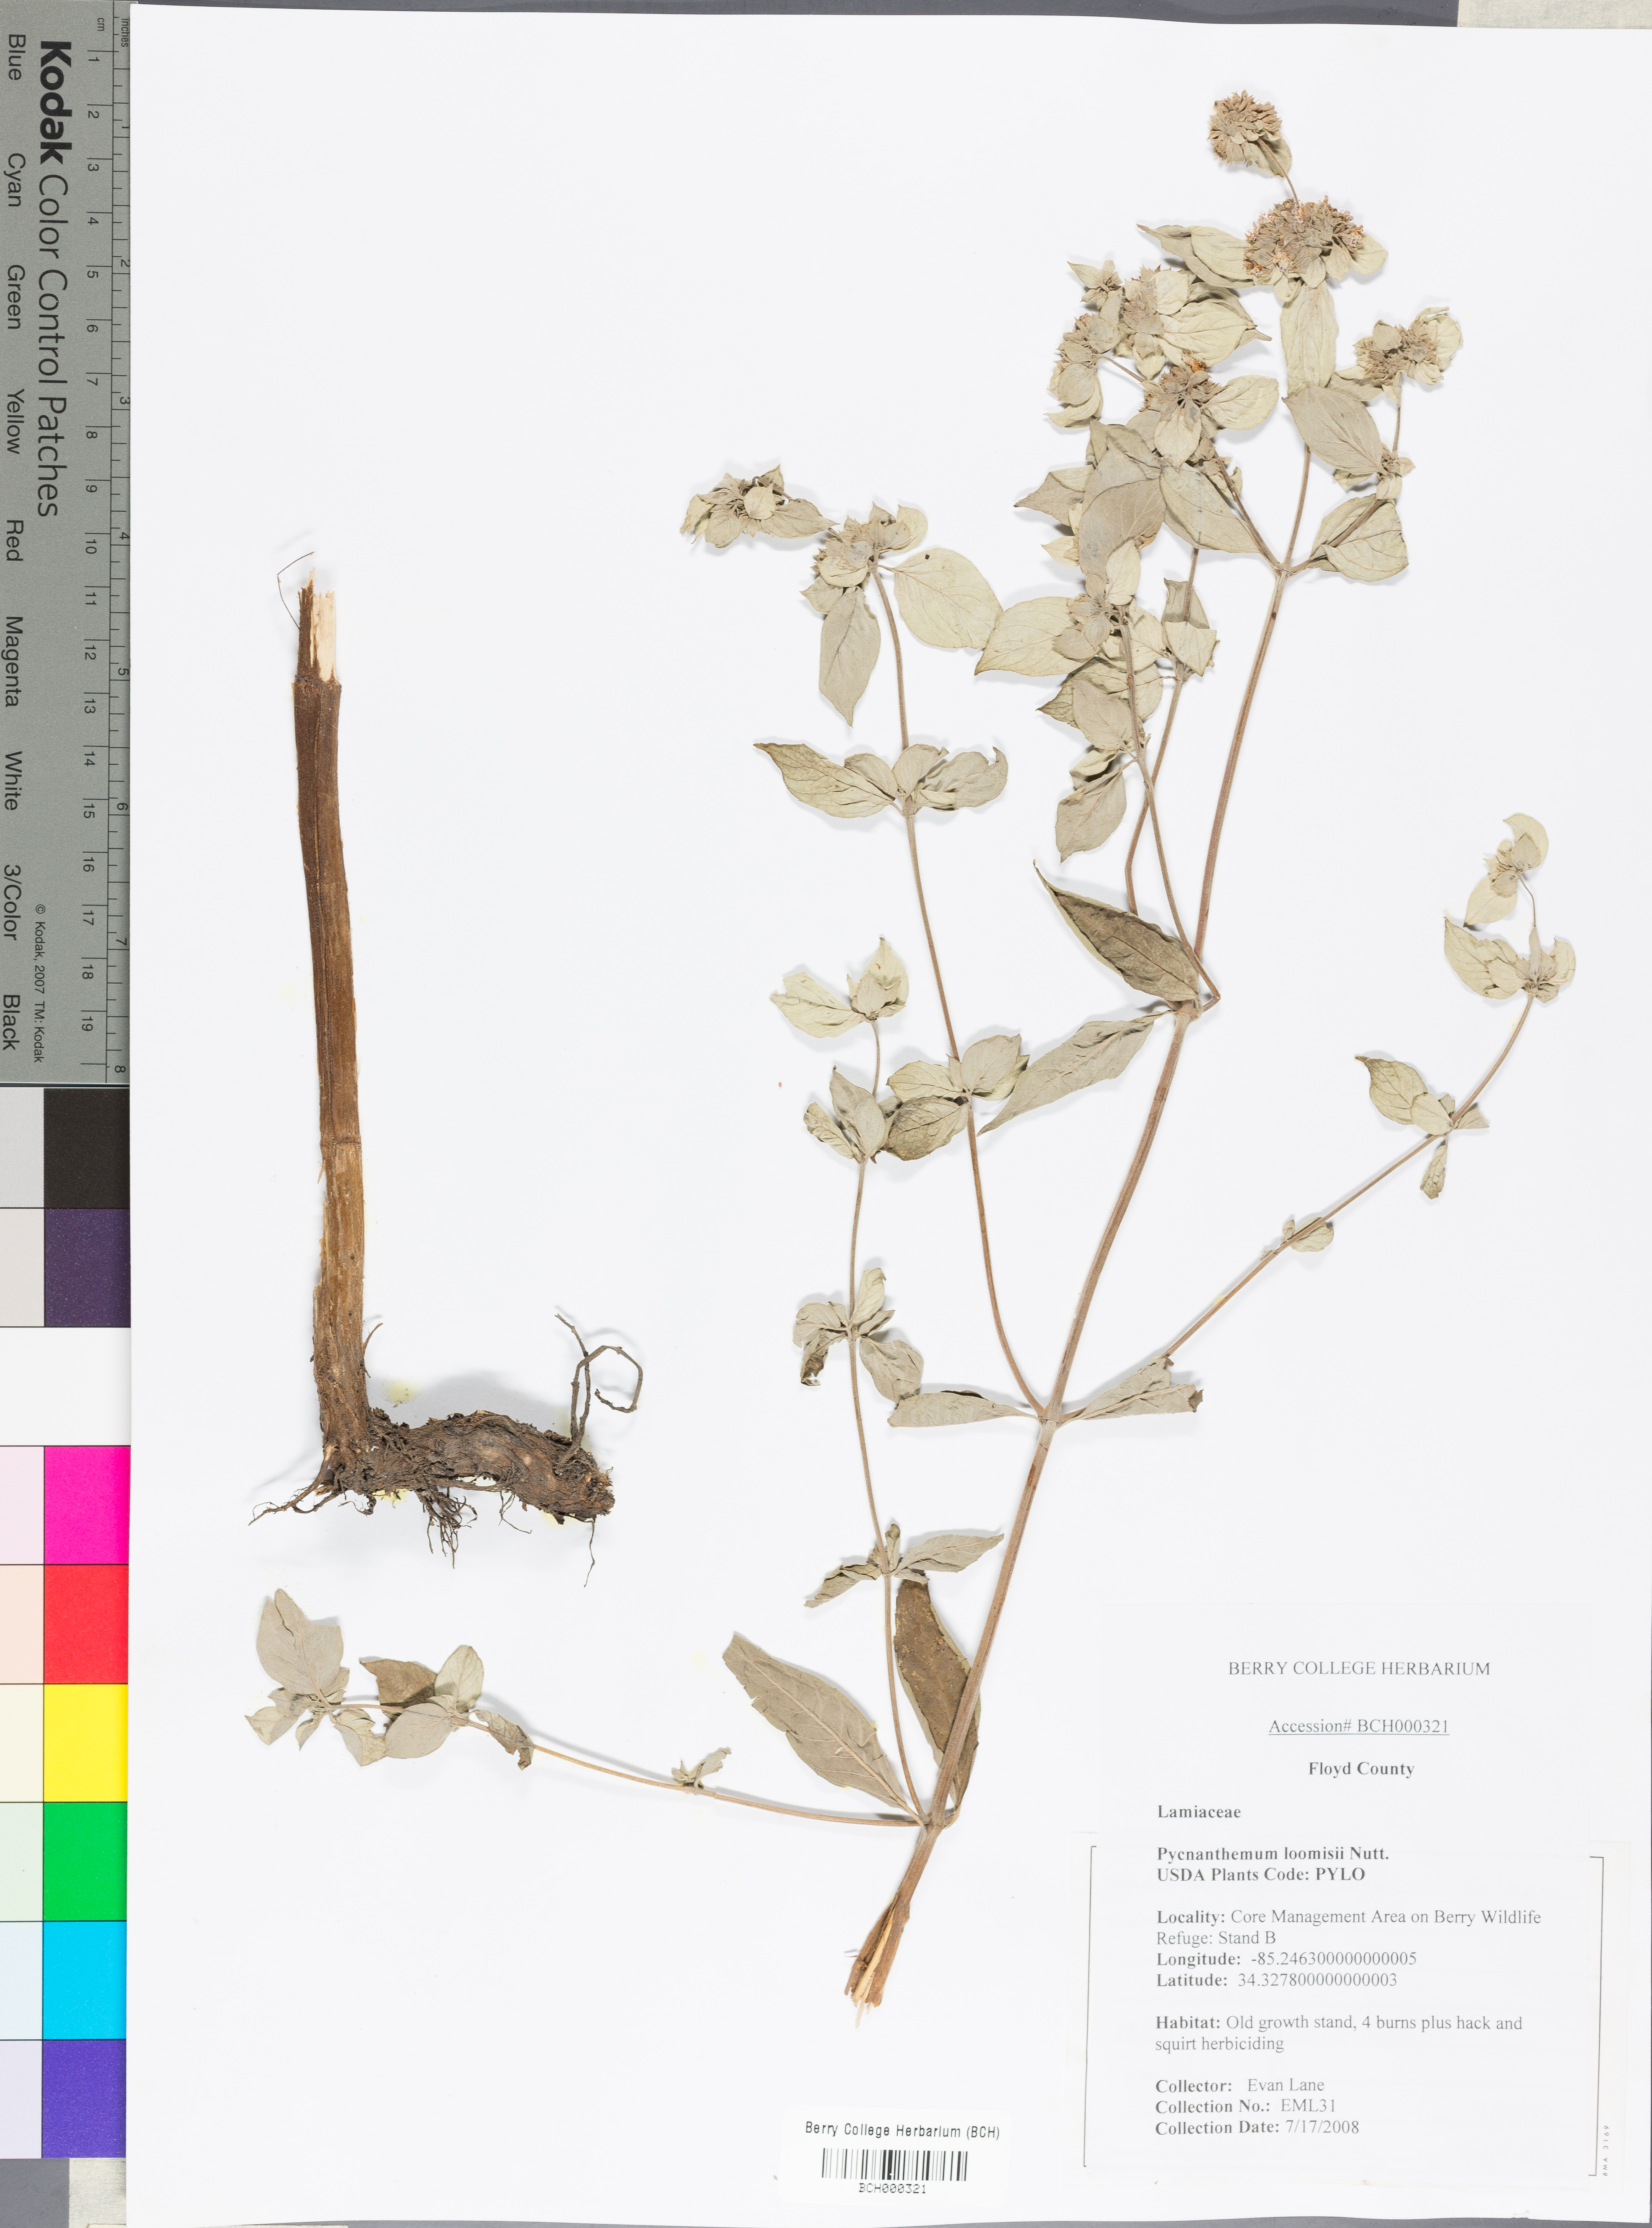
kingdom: Plantae
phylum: Tracheophyta
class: Magnoliopsida
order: Lamiales
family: Lamiaceae
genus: Pycnanthemum
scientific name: Pycnanthemum loomisii
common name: Loomis's mountain-mint
